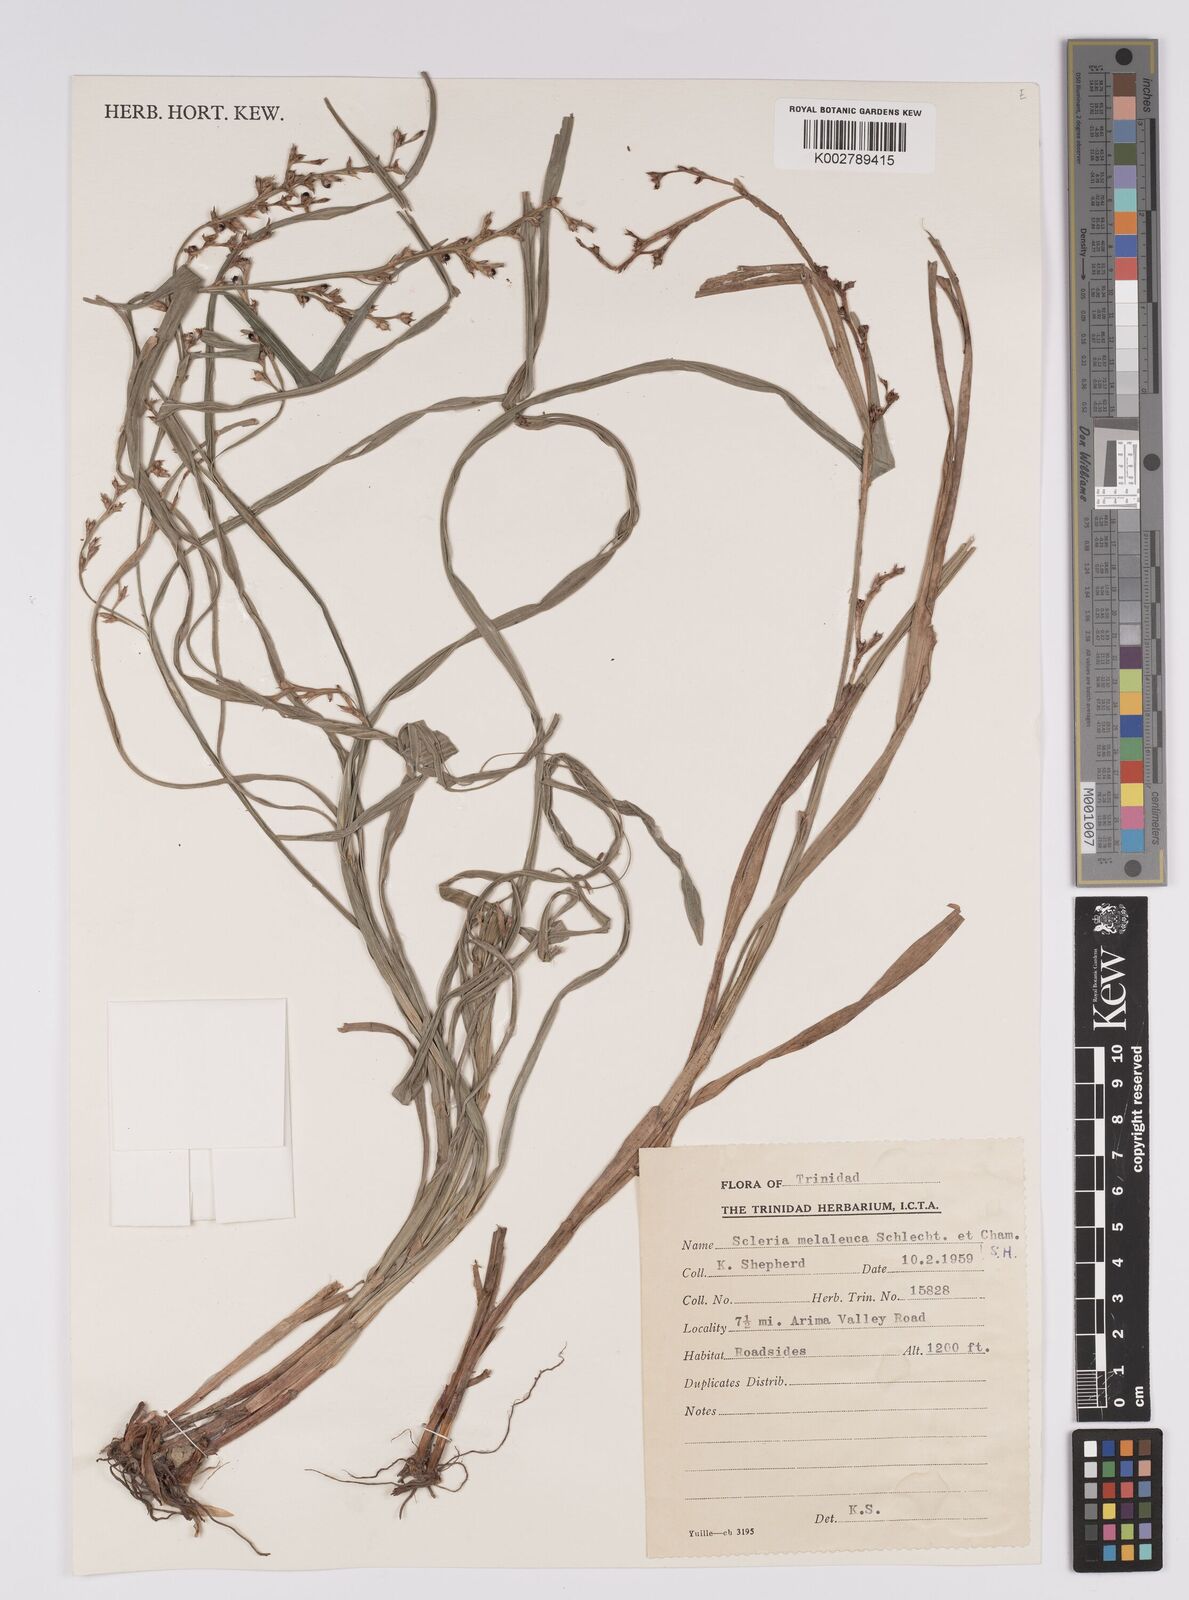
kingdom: Plantae
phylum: Tracheophyta
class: Liliopsida
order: Poales
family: Cyperaceae
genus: Scleria
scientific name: Scleria gaertneri
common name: Cortadera blanca
